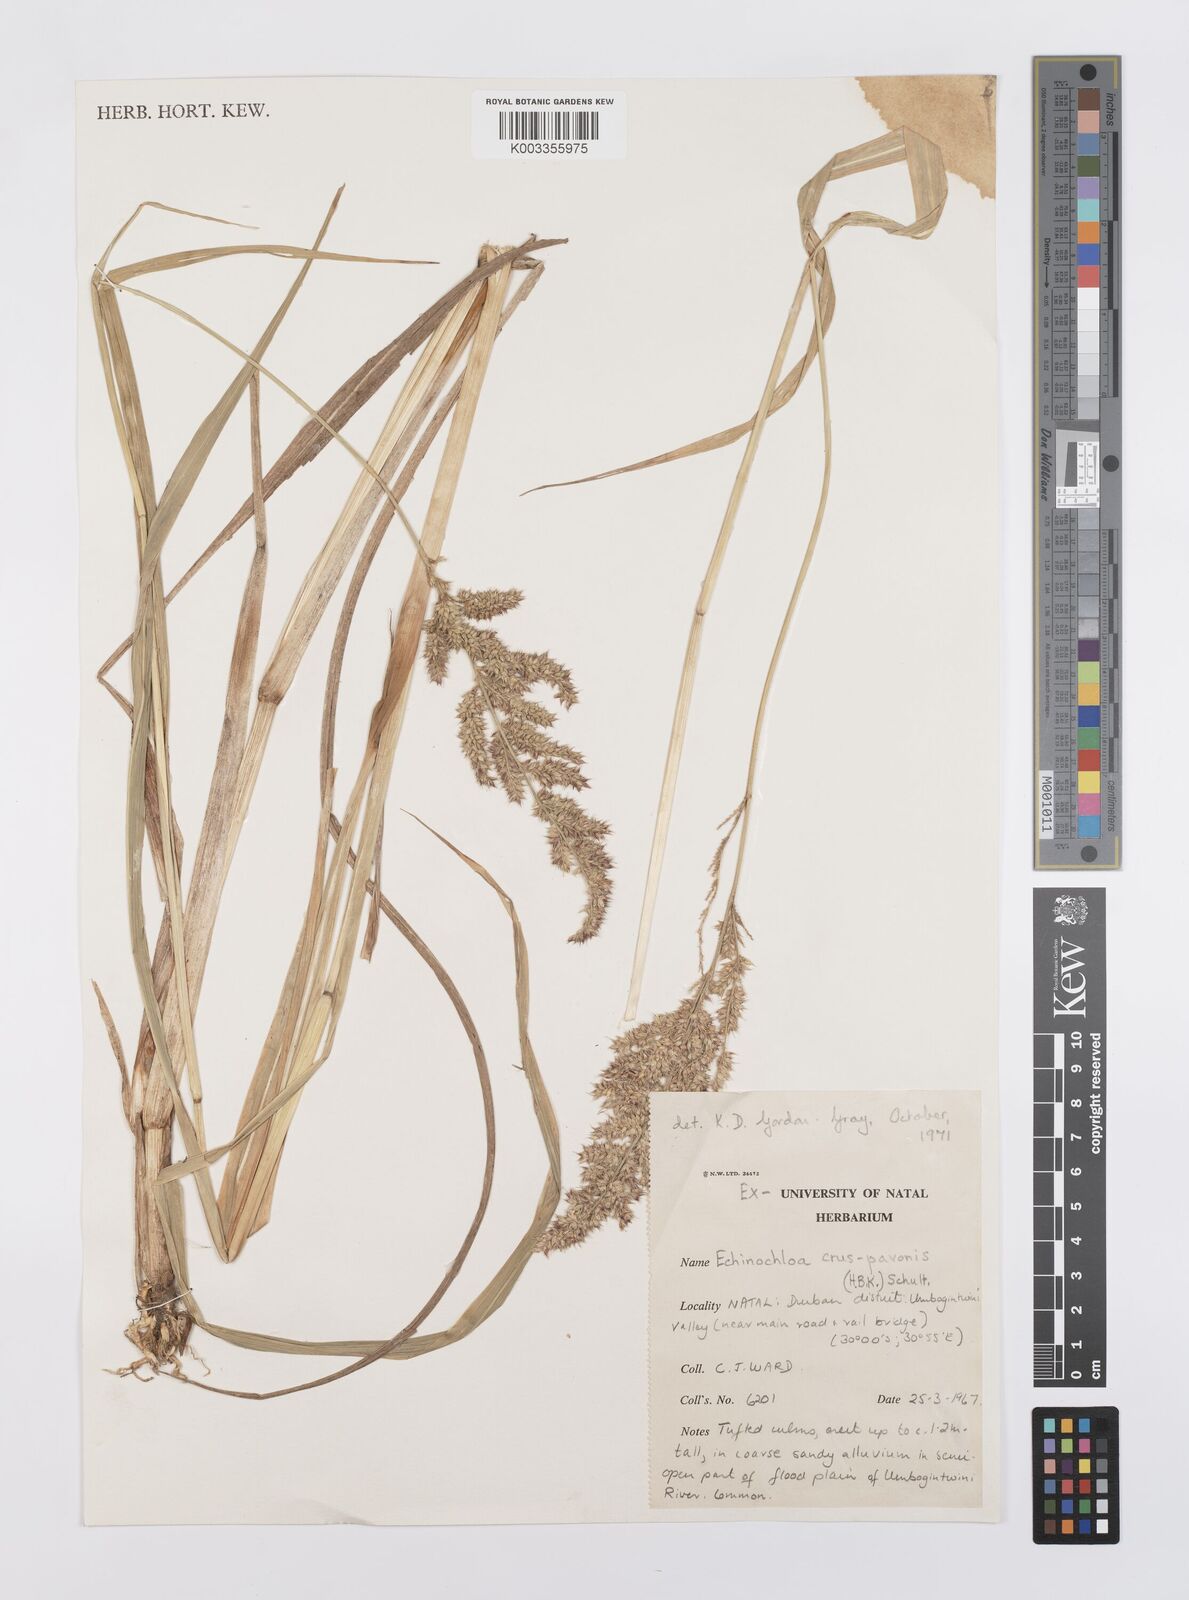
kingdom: Plantae
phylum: Tracheophyta
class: Liliopsida
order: Poales
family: Poaceae
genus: Echinochloa
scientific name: Echinochloa crus-pavonis
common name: Gulf cockspur grass
